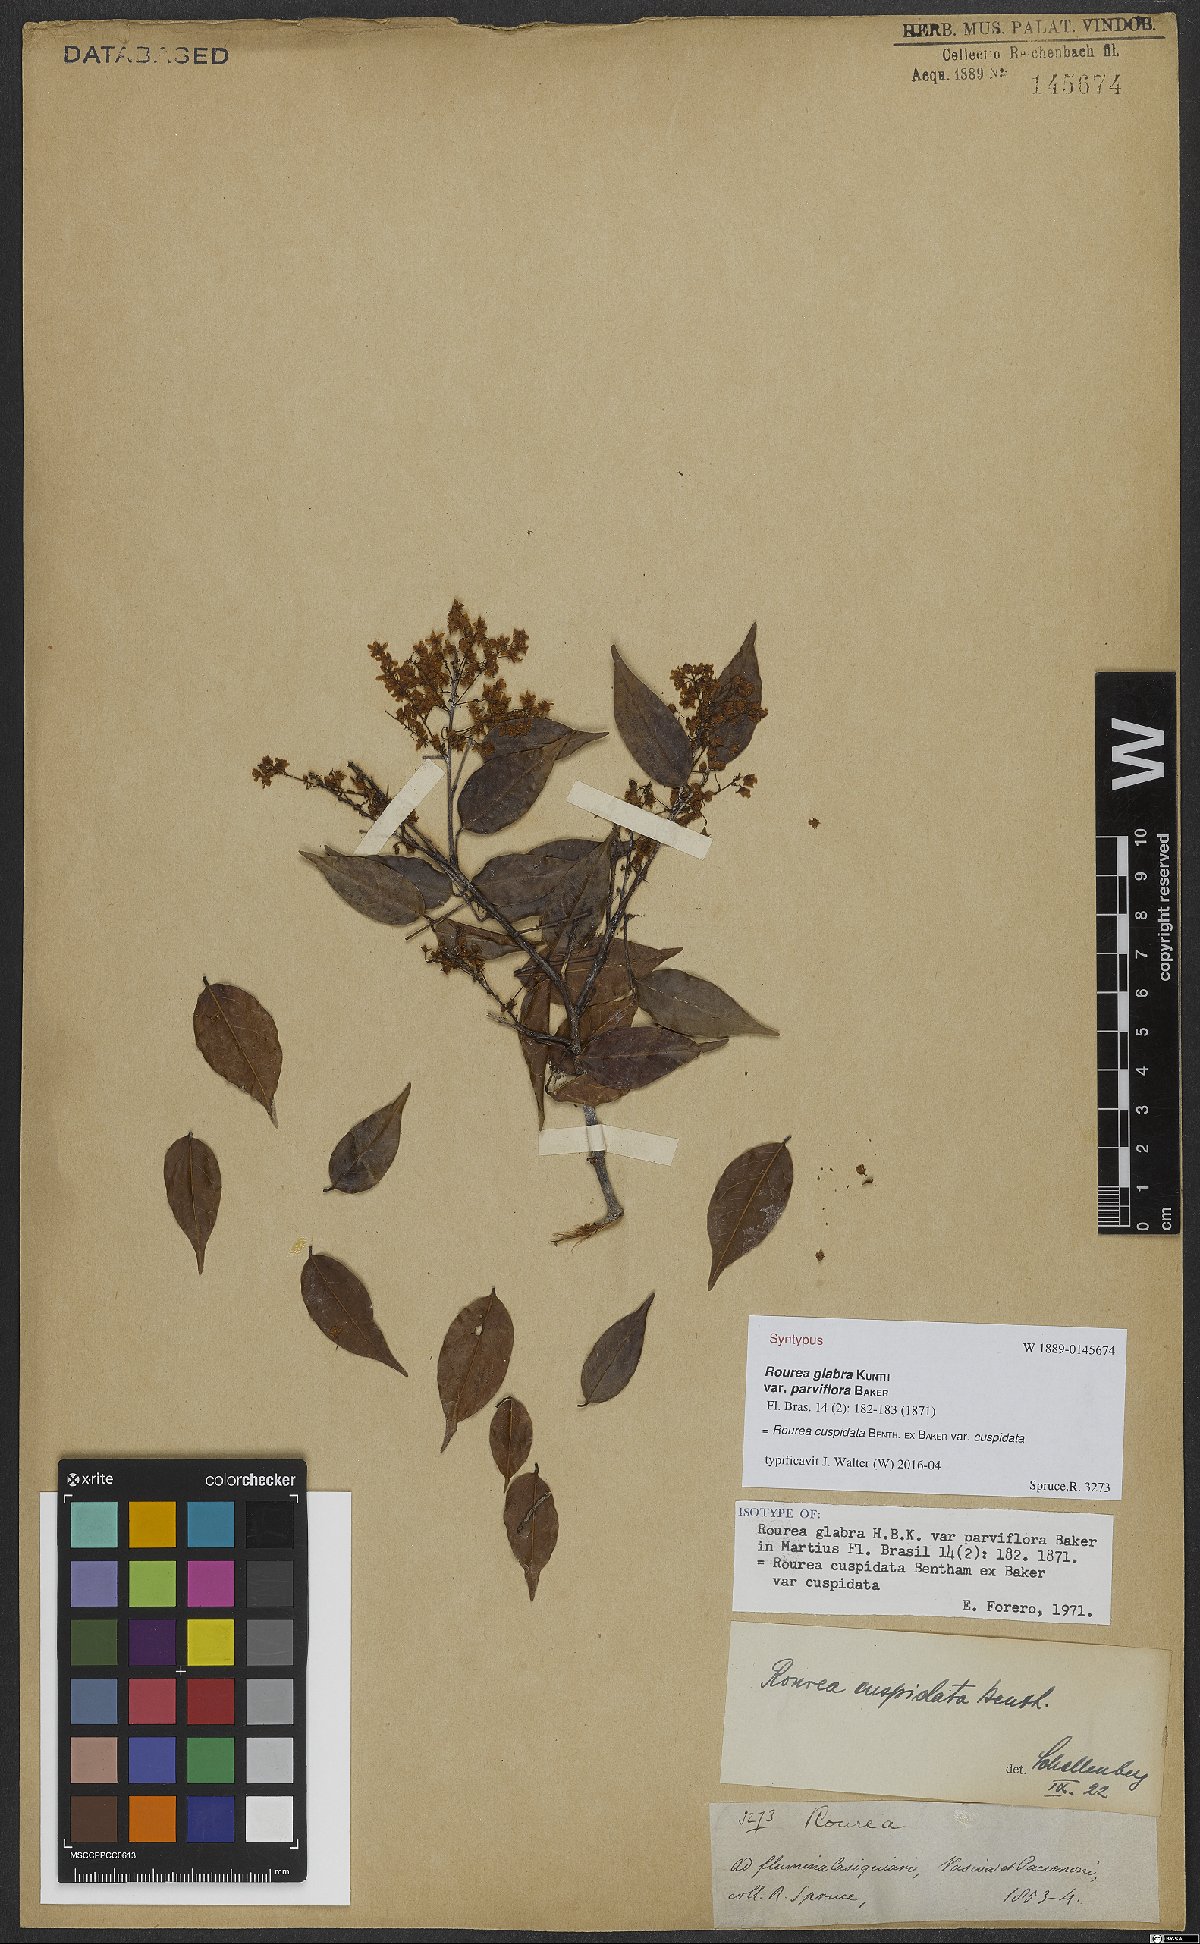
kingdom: Plantae
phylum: Tracheophyta
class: Magnoliopsida
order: Oxalidales
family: Connaraceae
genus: Rourea
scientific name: Rourea cuspidata
